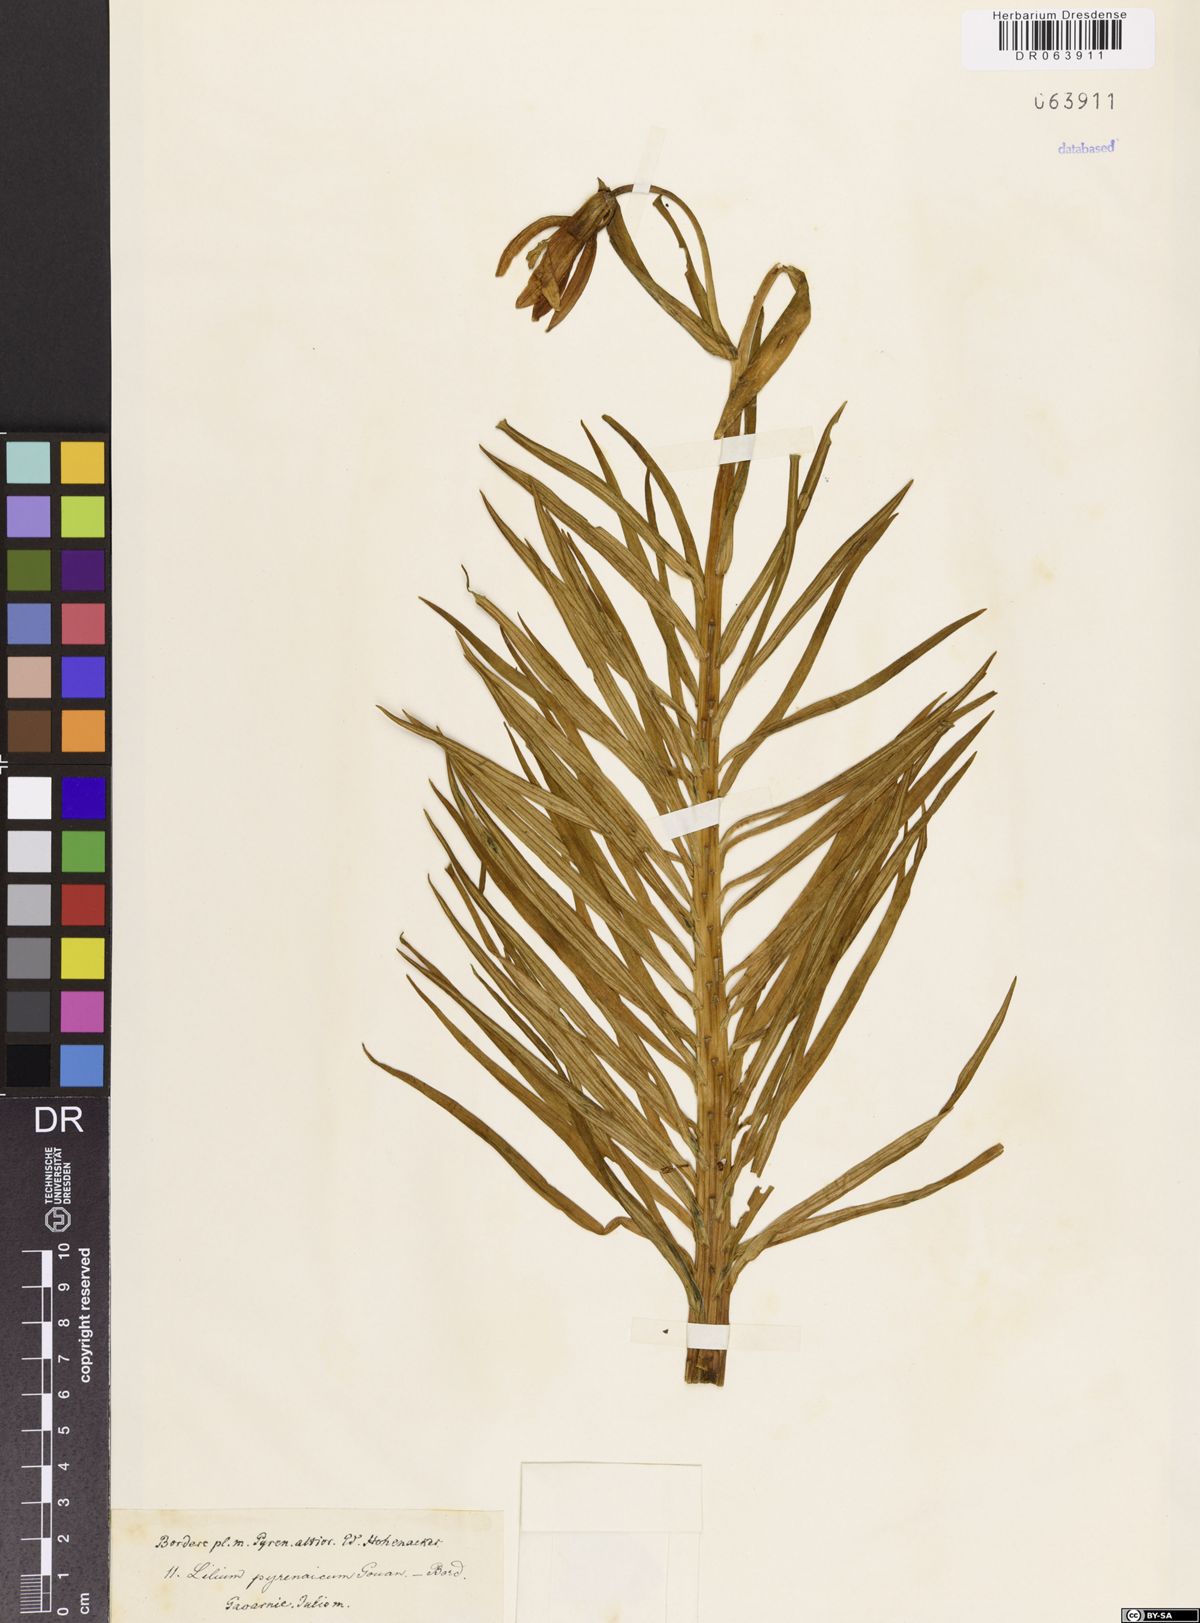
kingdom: Plantae
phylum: Tracheophyta
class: Liliopsida
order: Liliales
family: Liliaceae
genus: Lilium
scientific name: Lilium pyrenaicum
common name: Pyrenean lily
